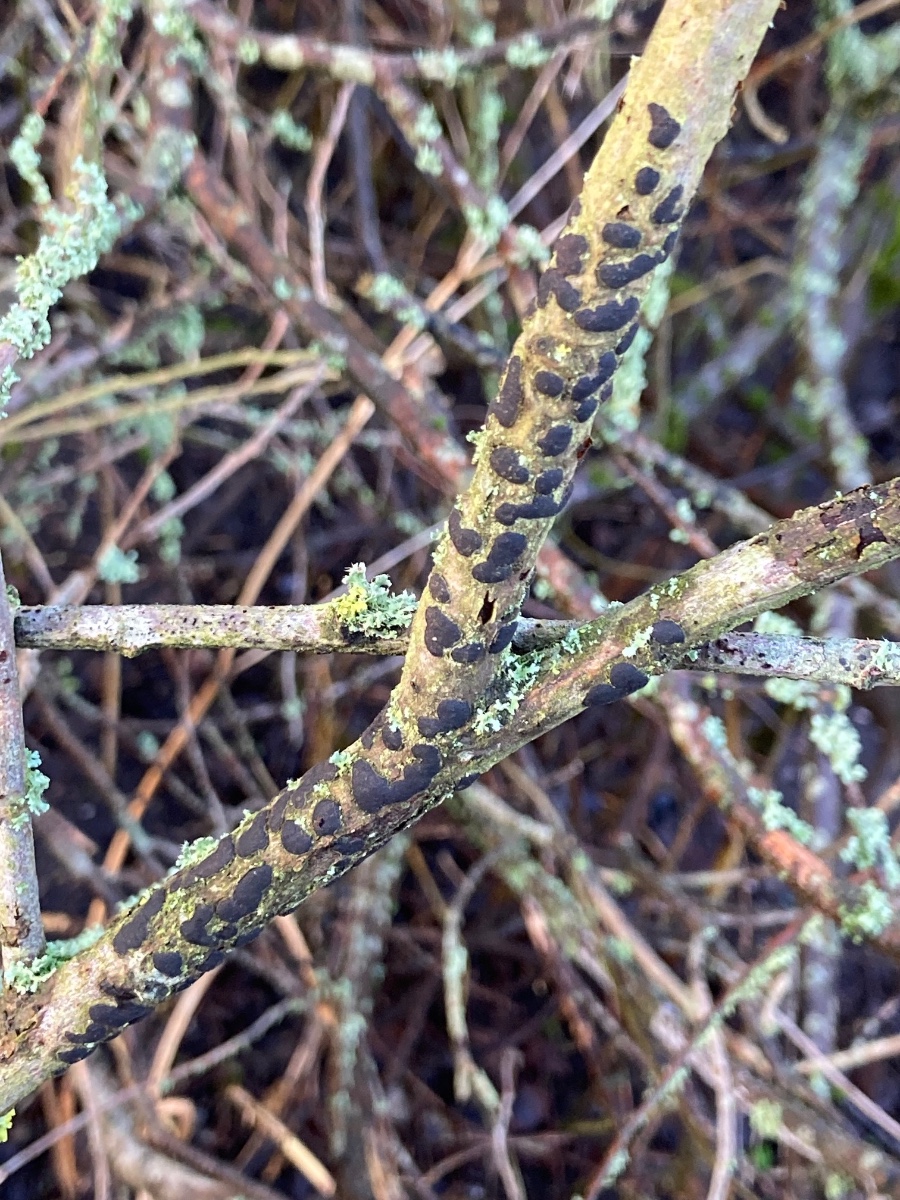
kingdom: Fungi
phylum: Ascomycota
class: Sordariomycetes
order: Xylariales
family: Diatrypaceae
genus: Diatrype
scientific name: Diatrype bullata
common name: pile-kulskorpe
